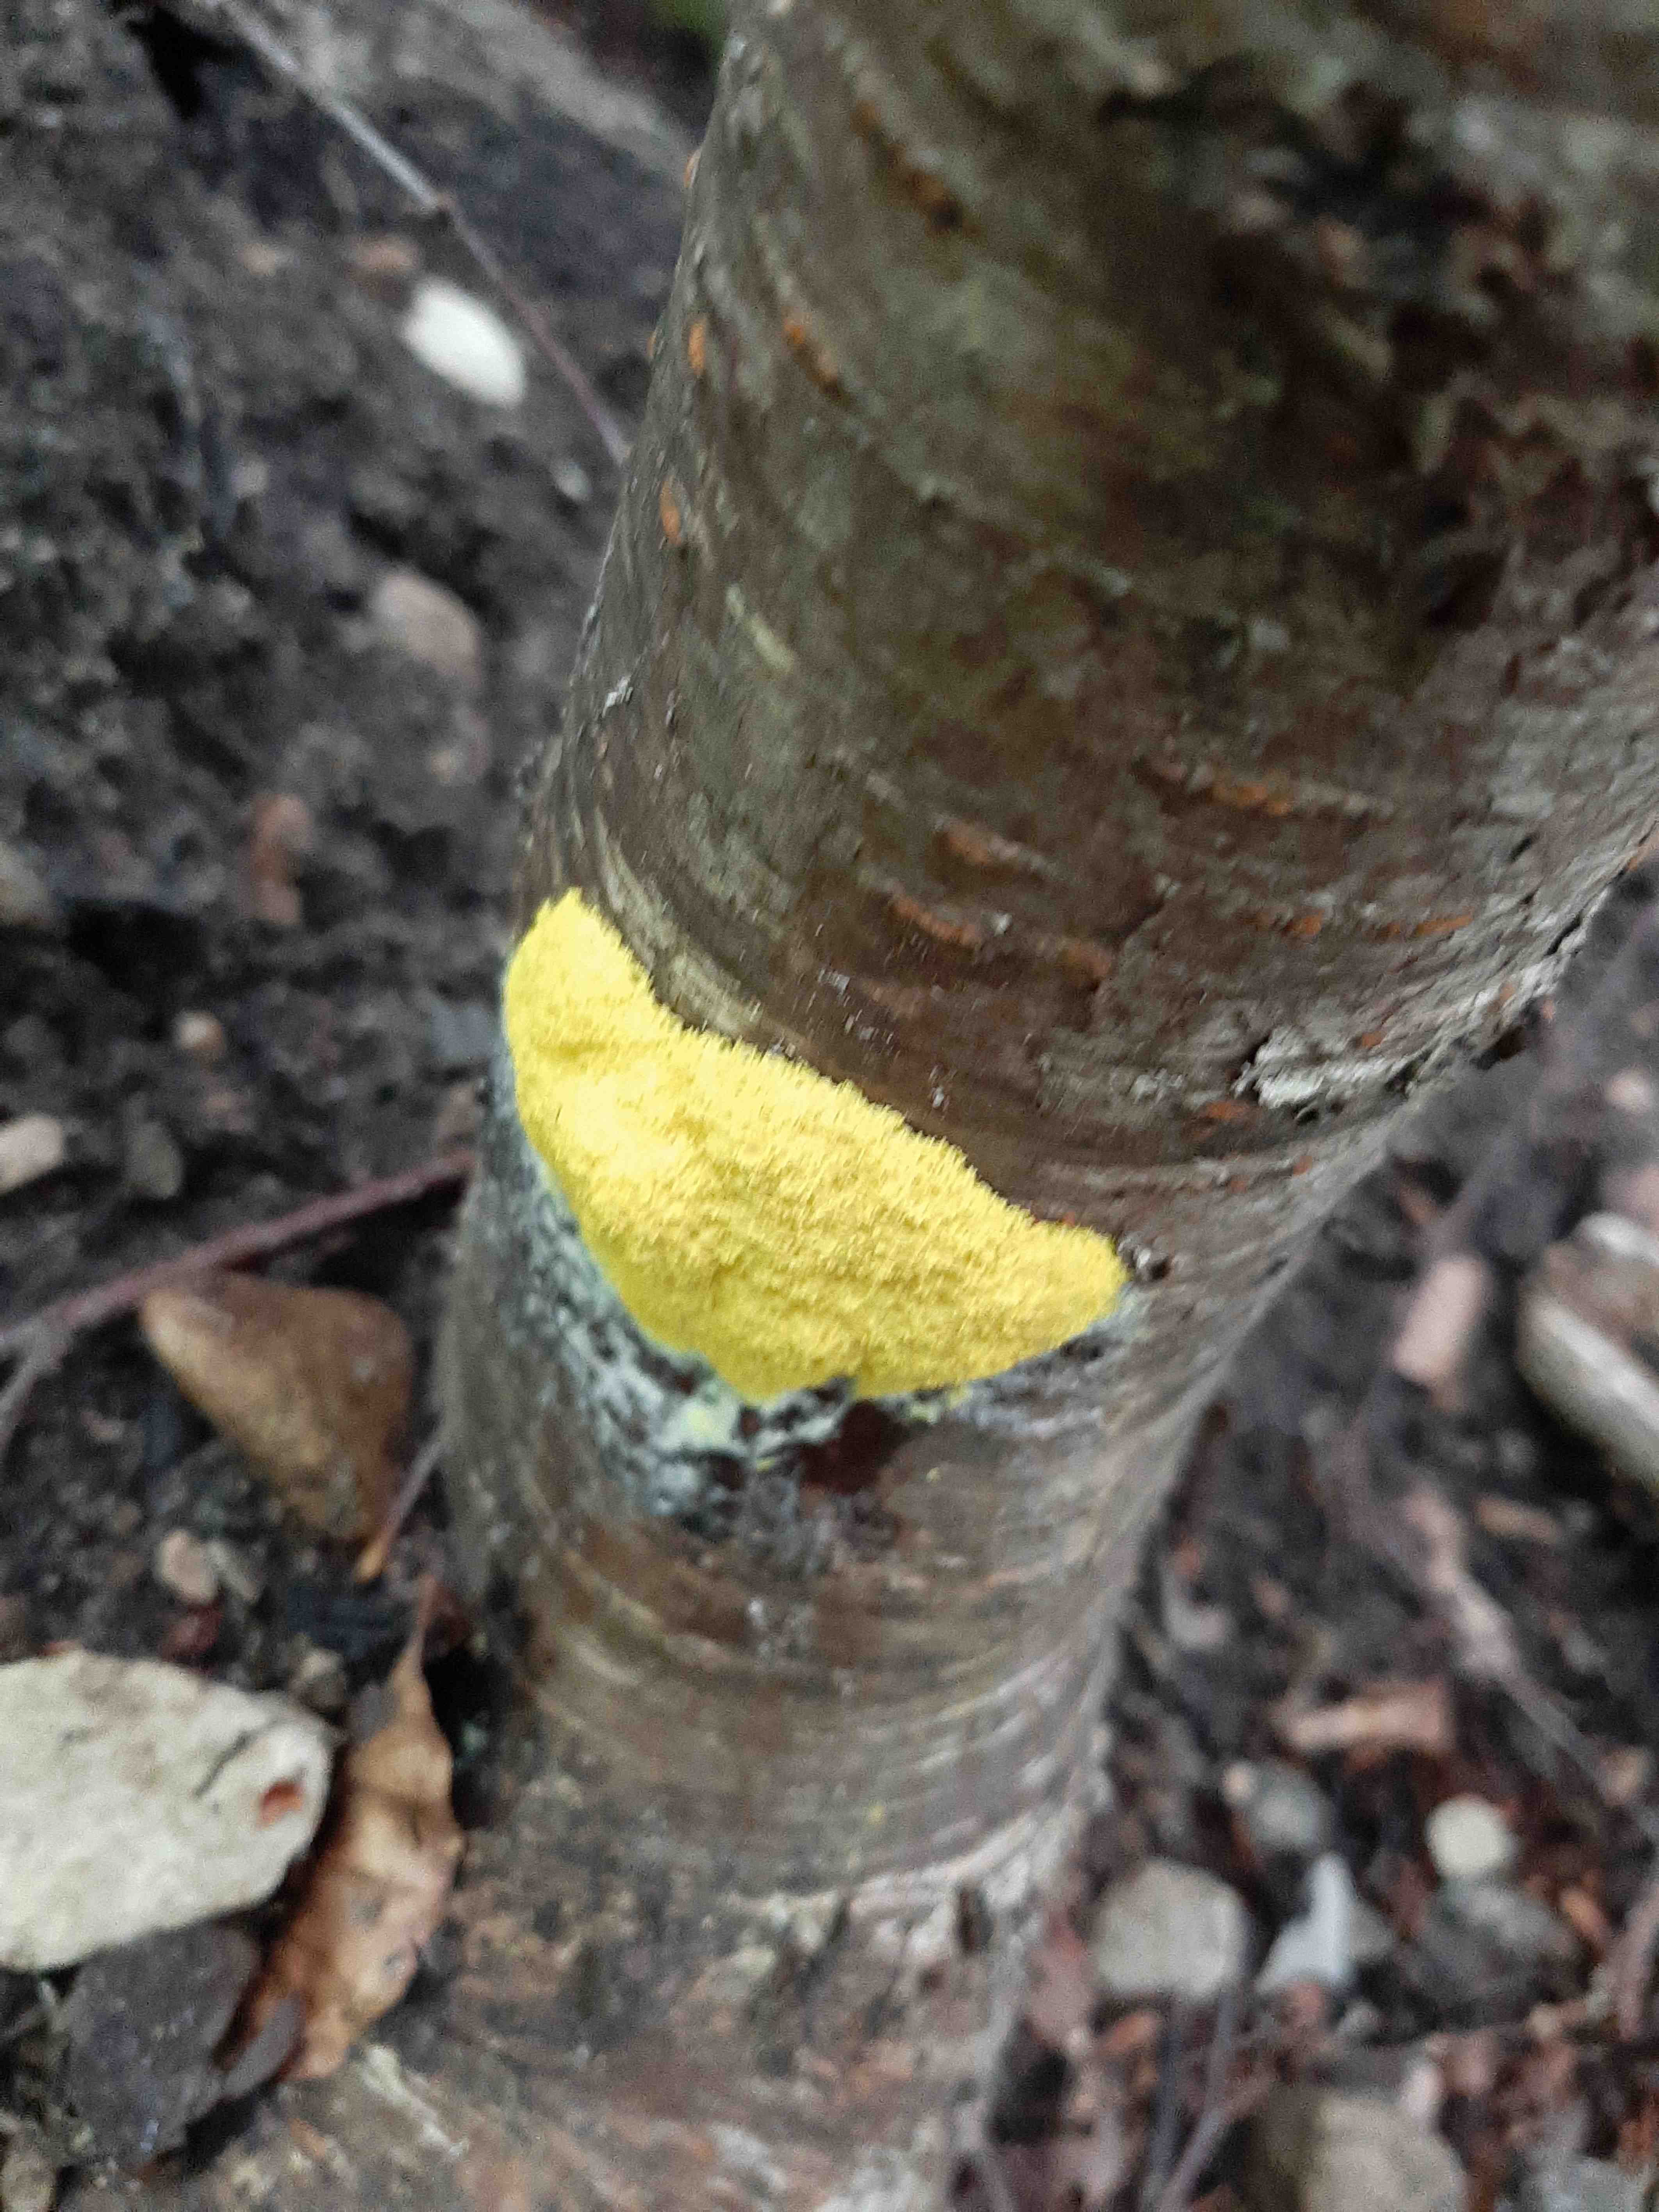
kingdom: Protozoa
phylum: Mycetozoa
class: Myxomycetes
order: Physarales
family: Physaraceae
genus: Fuligo
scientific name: Fuligo septica
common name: gul troldsmør
